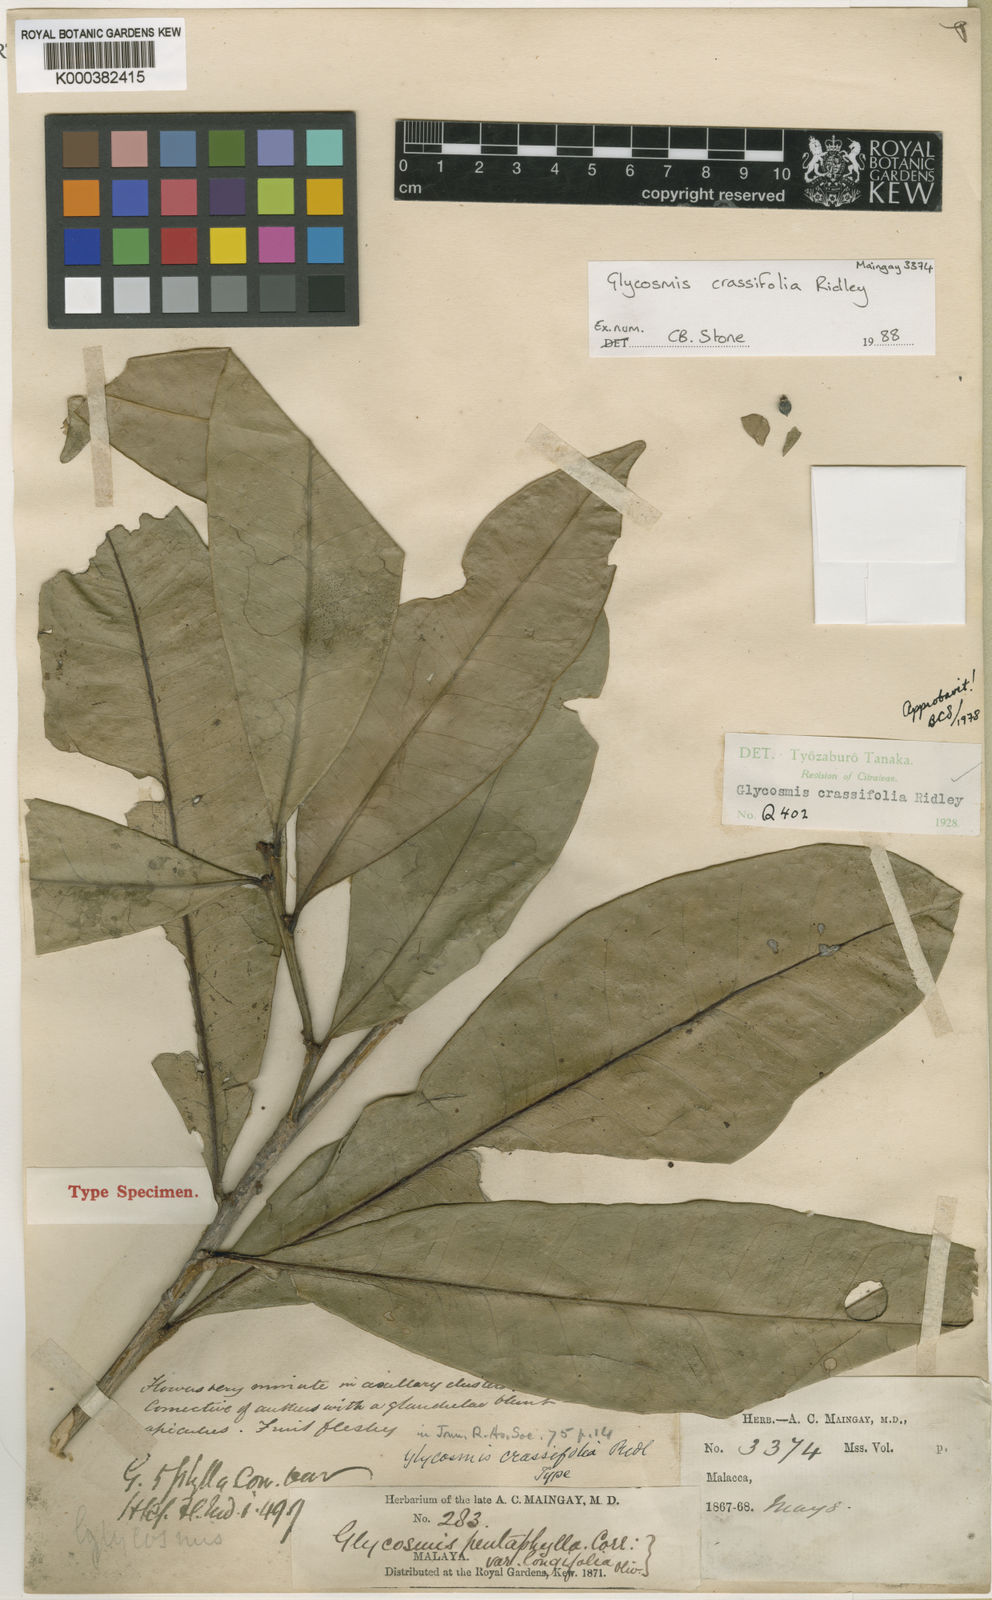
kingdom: Plantae
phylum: Tracheophyta
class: Magnoliopsida
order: Sapindales
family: Rutaceae
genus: Glycosmis
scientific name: Glycosmis crassifolia
